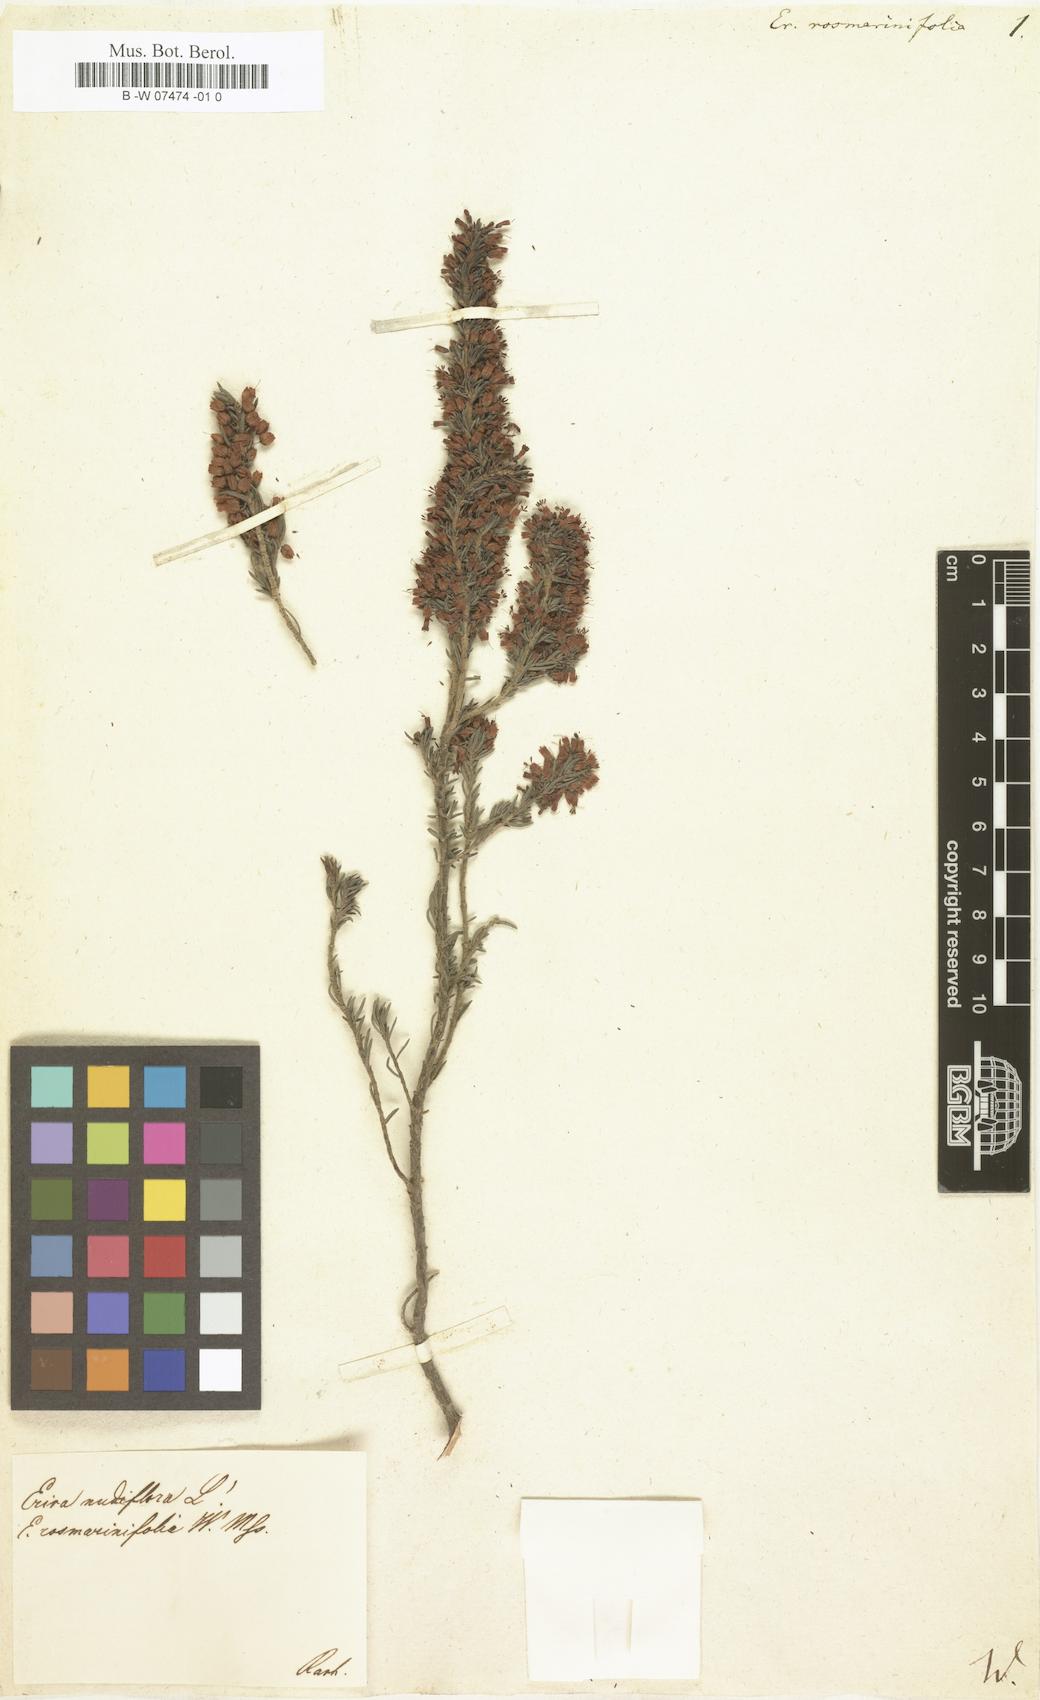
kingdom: Plantae
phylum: Tracheophyta
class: Magnoliopsida
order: Ericales
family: Ericaceae
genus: Erica
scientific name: Erica rosmarinifolia
